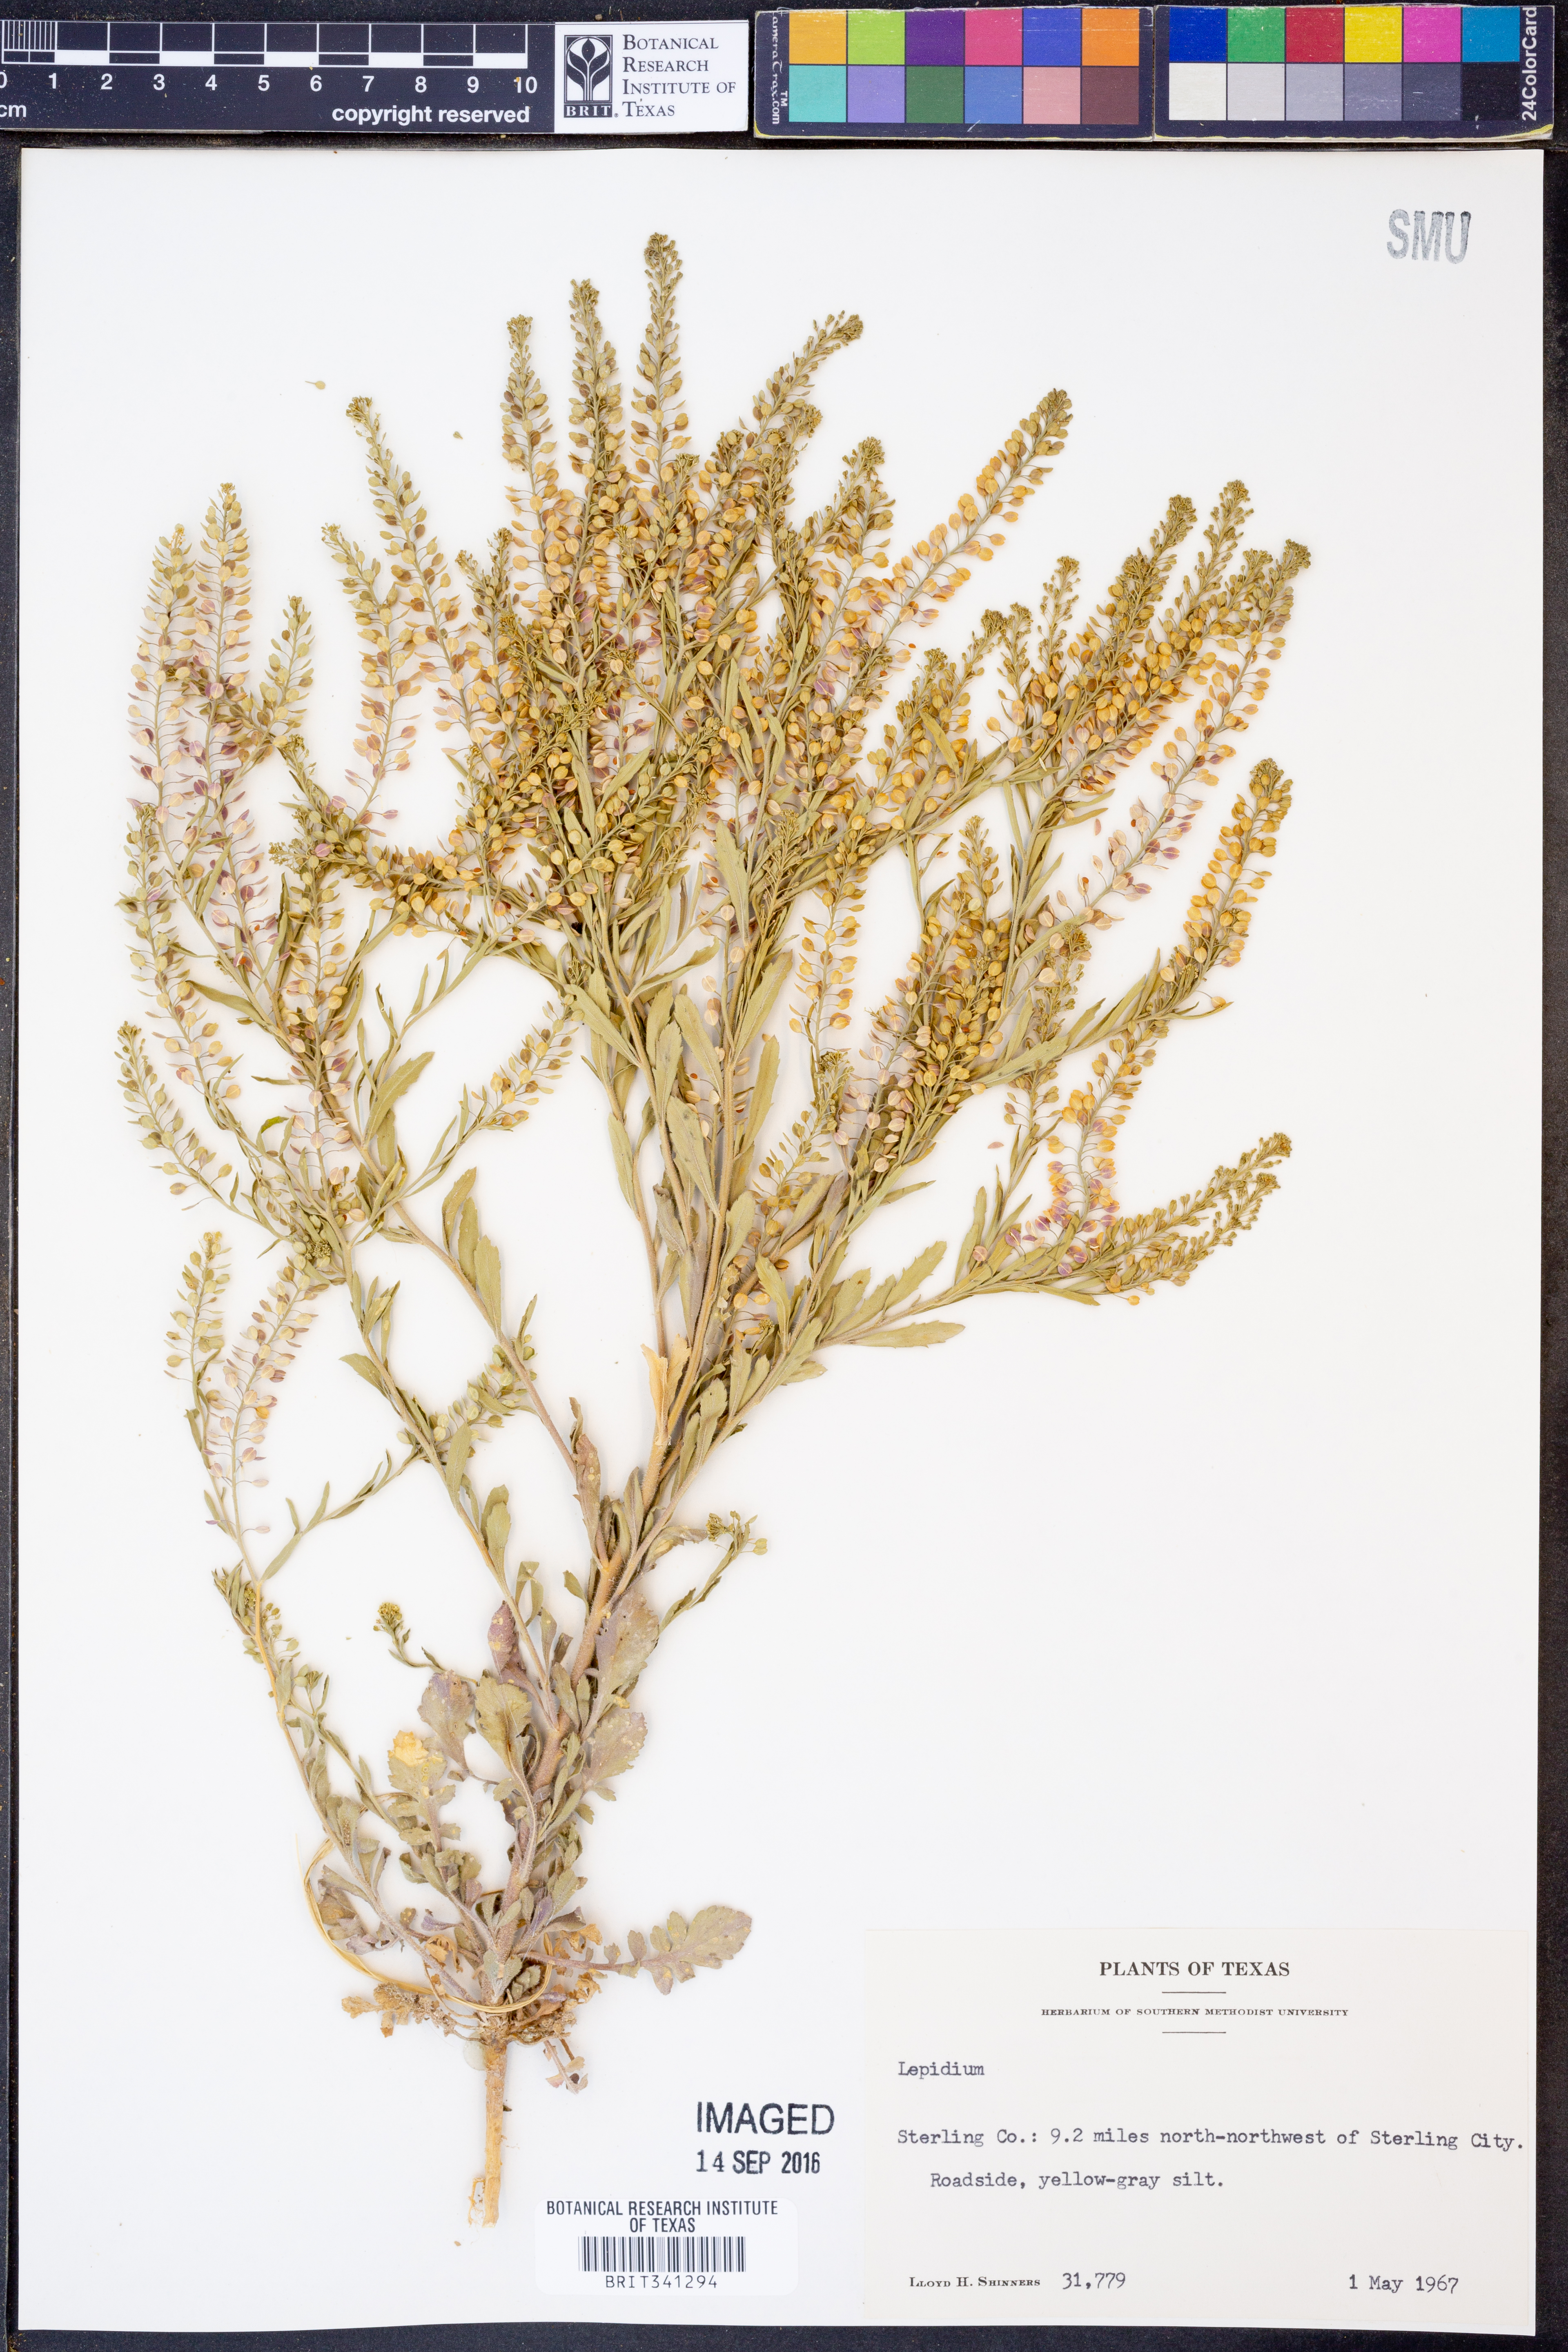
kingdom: Plantae
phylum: Tracheophyta
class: Magnoliopsida
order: Brassicales
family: Brassicaceae
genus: Lepidium
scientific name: Lepidium
